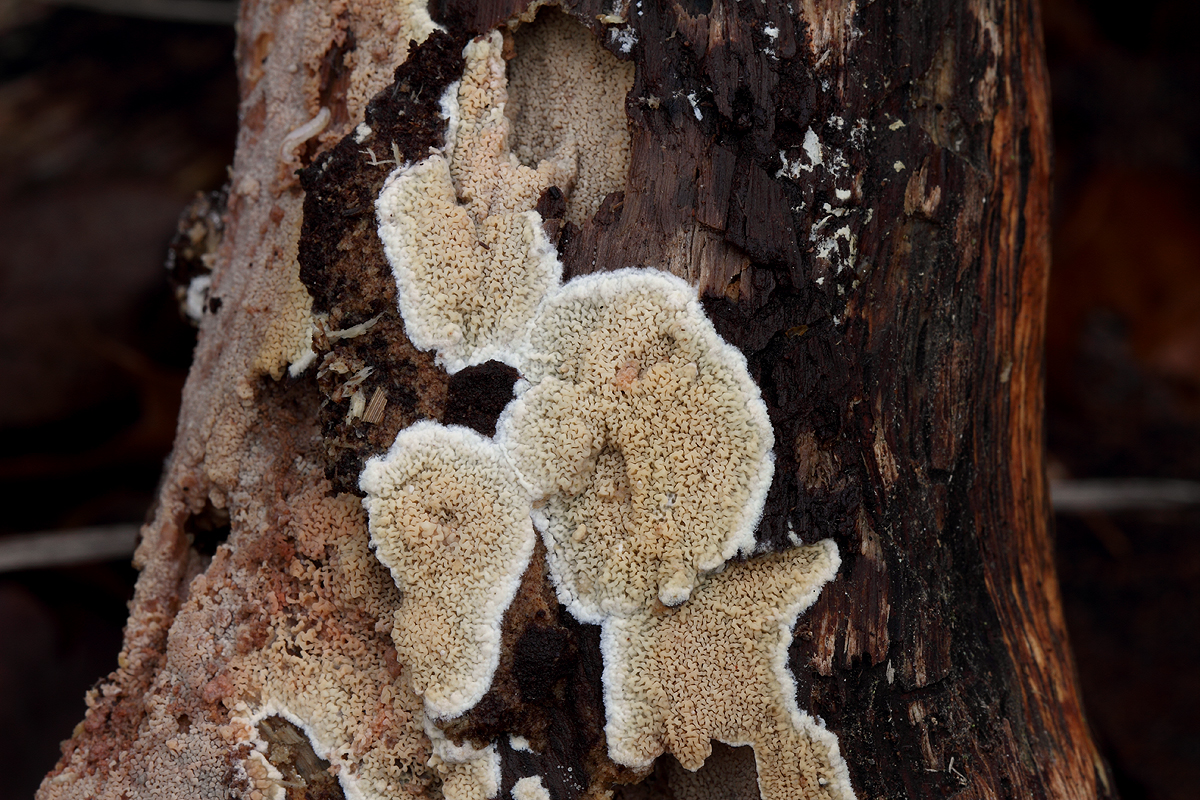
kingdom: Fungi
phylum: Basidiomycota
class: Agaricomycetes
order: Polyporales
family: Meruliaceae
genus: Phlebia
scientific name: Phlebia rufa
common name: ege-åresvamp
